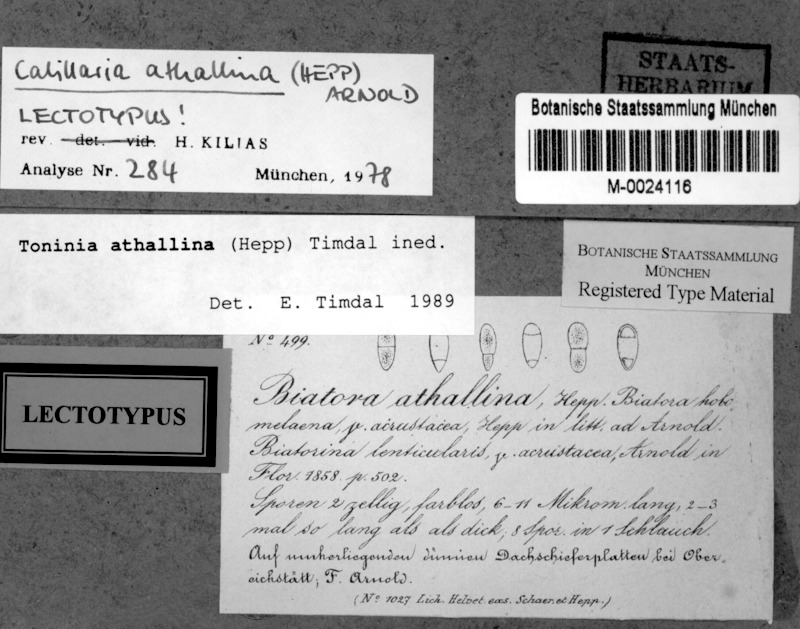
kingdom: Fungi
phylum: Ascomycota
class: Lecanoromycetes
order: Lecanorales
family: Ramalinaceae
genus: Kiliasia
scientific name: Kiliasia athallina
